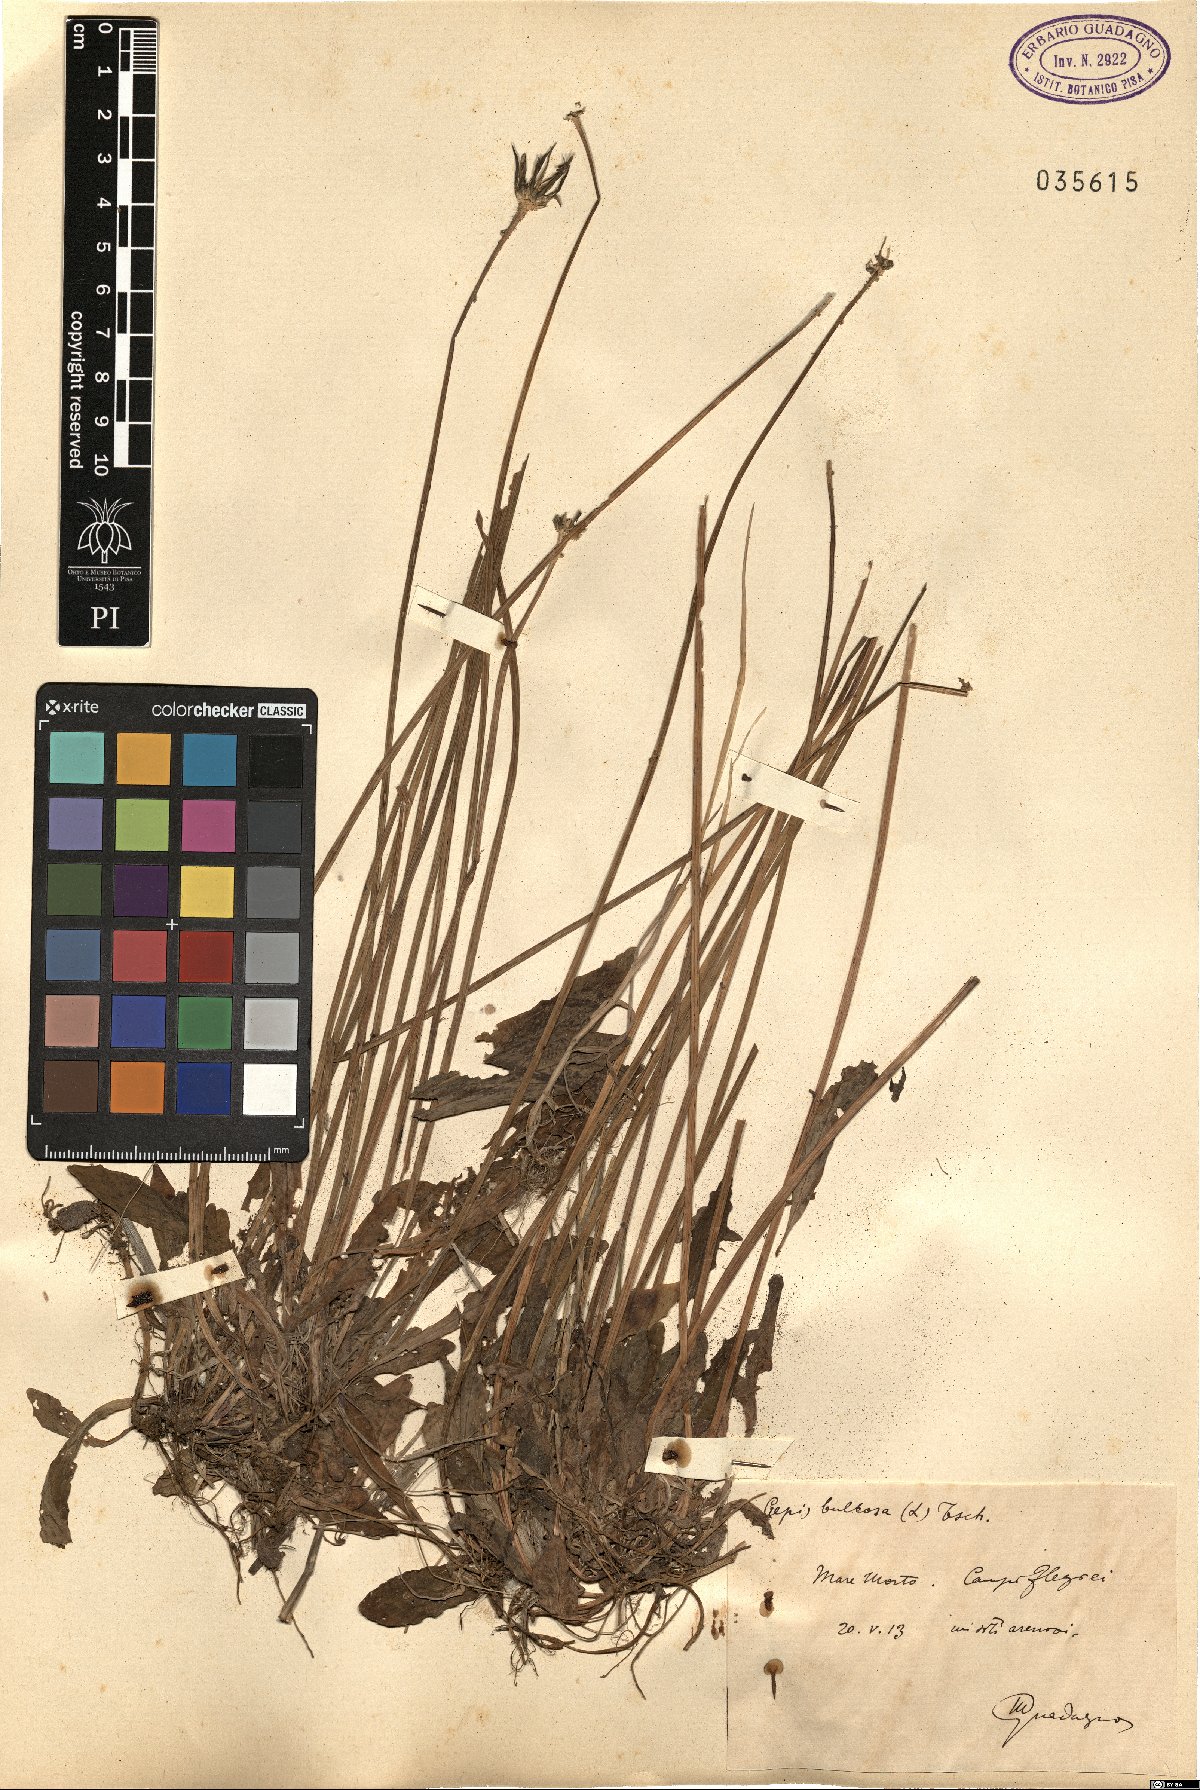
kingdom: Plantae
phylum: Tracheophyta
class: Magnoliopsida
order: Asterales
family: Asteraceae
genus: Aetheorhiza
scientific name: Aetheorhiza bulbosa
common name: Tuberous hawk's-beard
